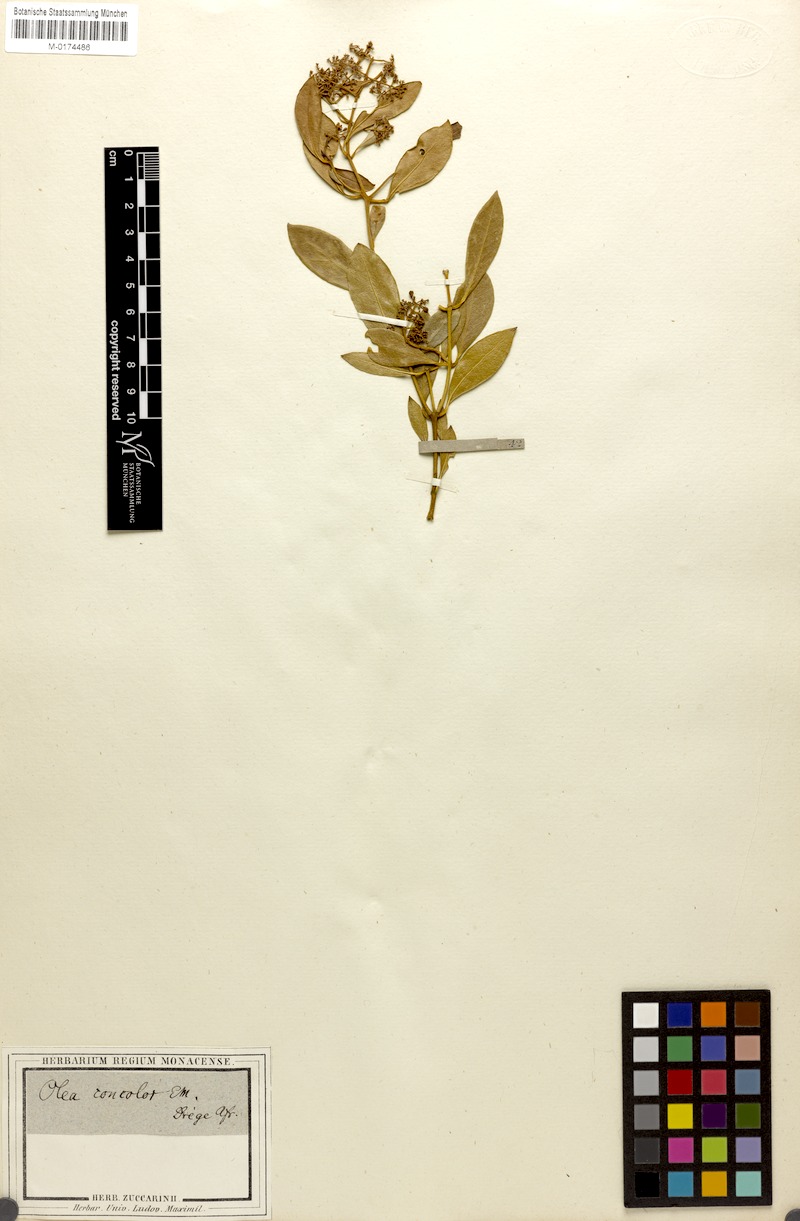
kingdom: Plantae
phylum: Tracheophyta
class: Magnoliopsida
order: Lamiales
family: Oleaceae
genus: Olea
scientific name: Olea capensis
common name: Black ironwood
